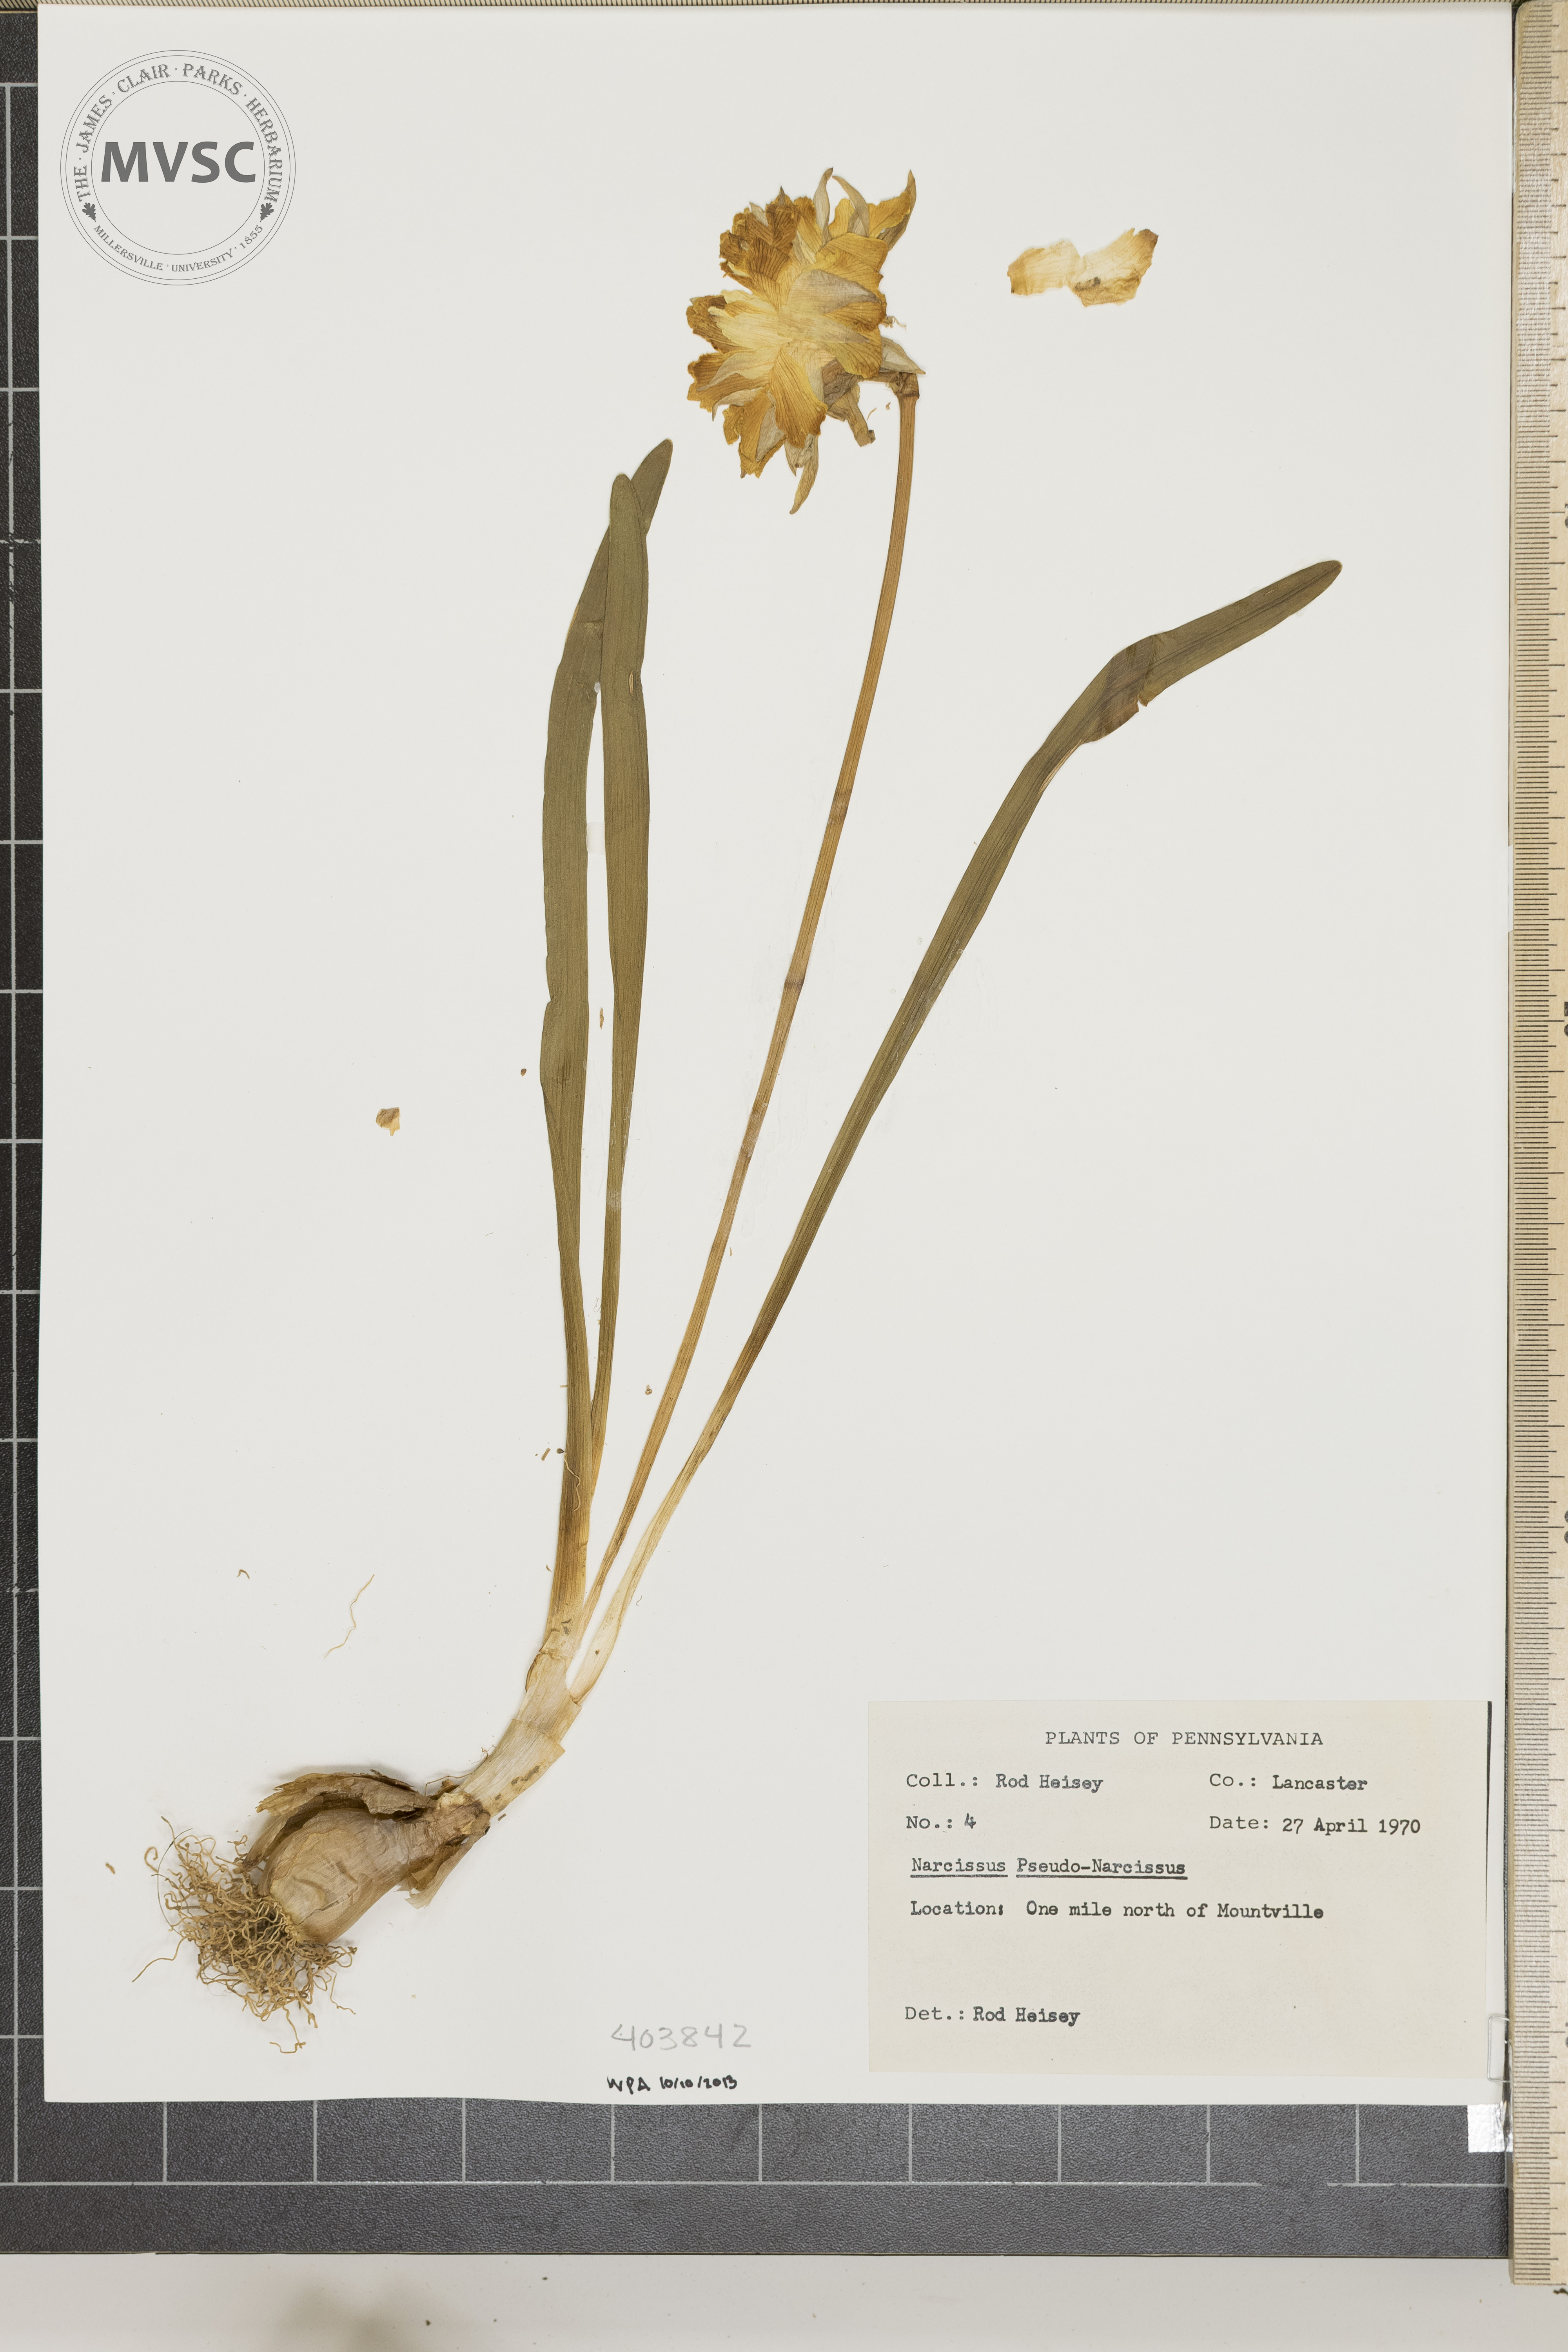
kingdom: Plantae
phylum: Tracheophyta
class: Liliopsida
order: Asparagales
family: Amaryllidaceae
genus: Narcissus
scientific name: Narcissus pseudonarcissus
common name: Daffodil
